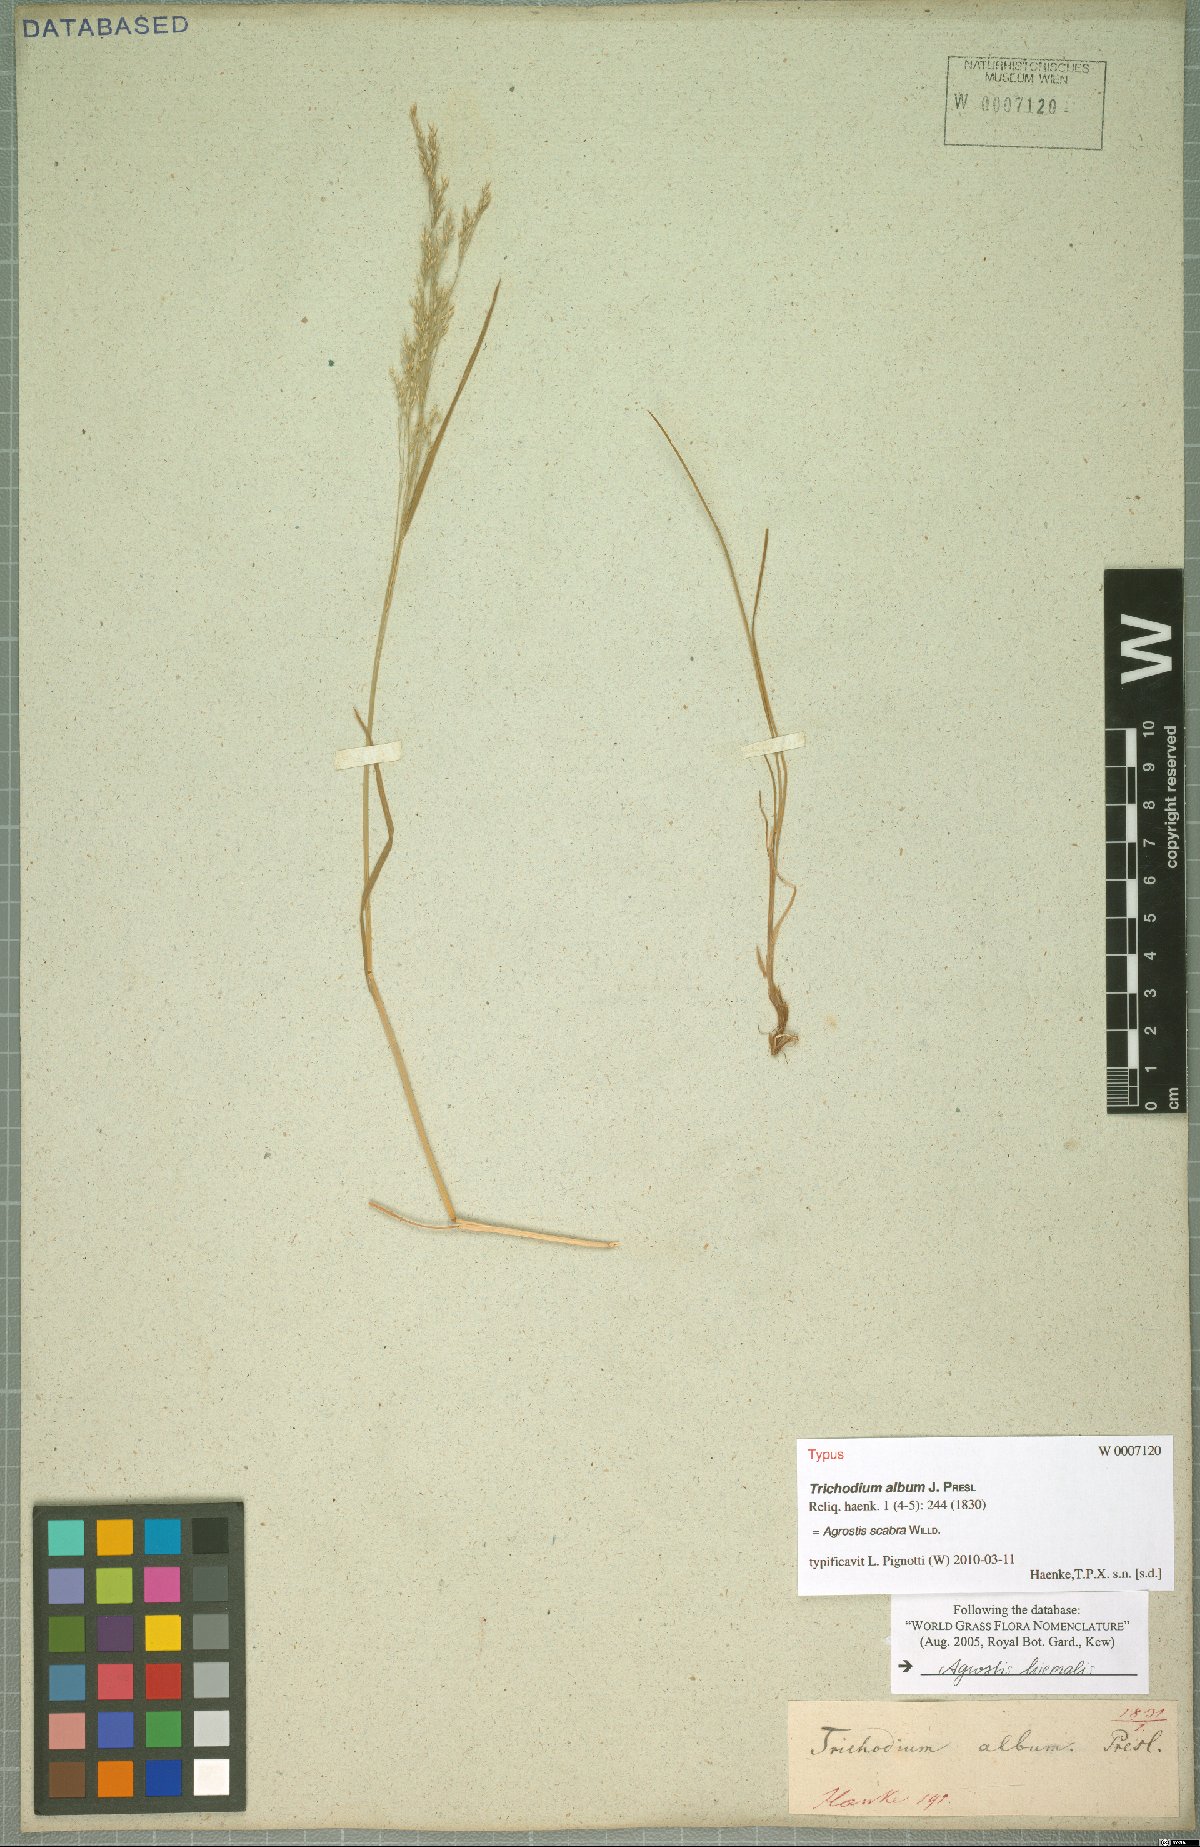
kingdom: Plantae
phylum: Tracheophyta
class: Liliopsida
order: Poales
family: Poaceae
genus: Agrostis
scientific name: Agrostis scabra
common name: Rough bent
